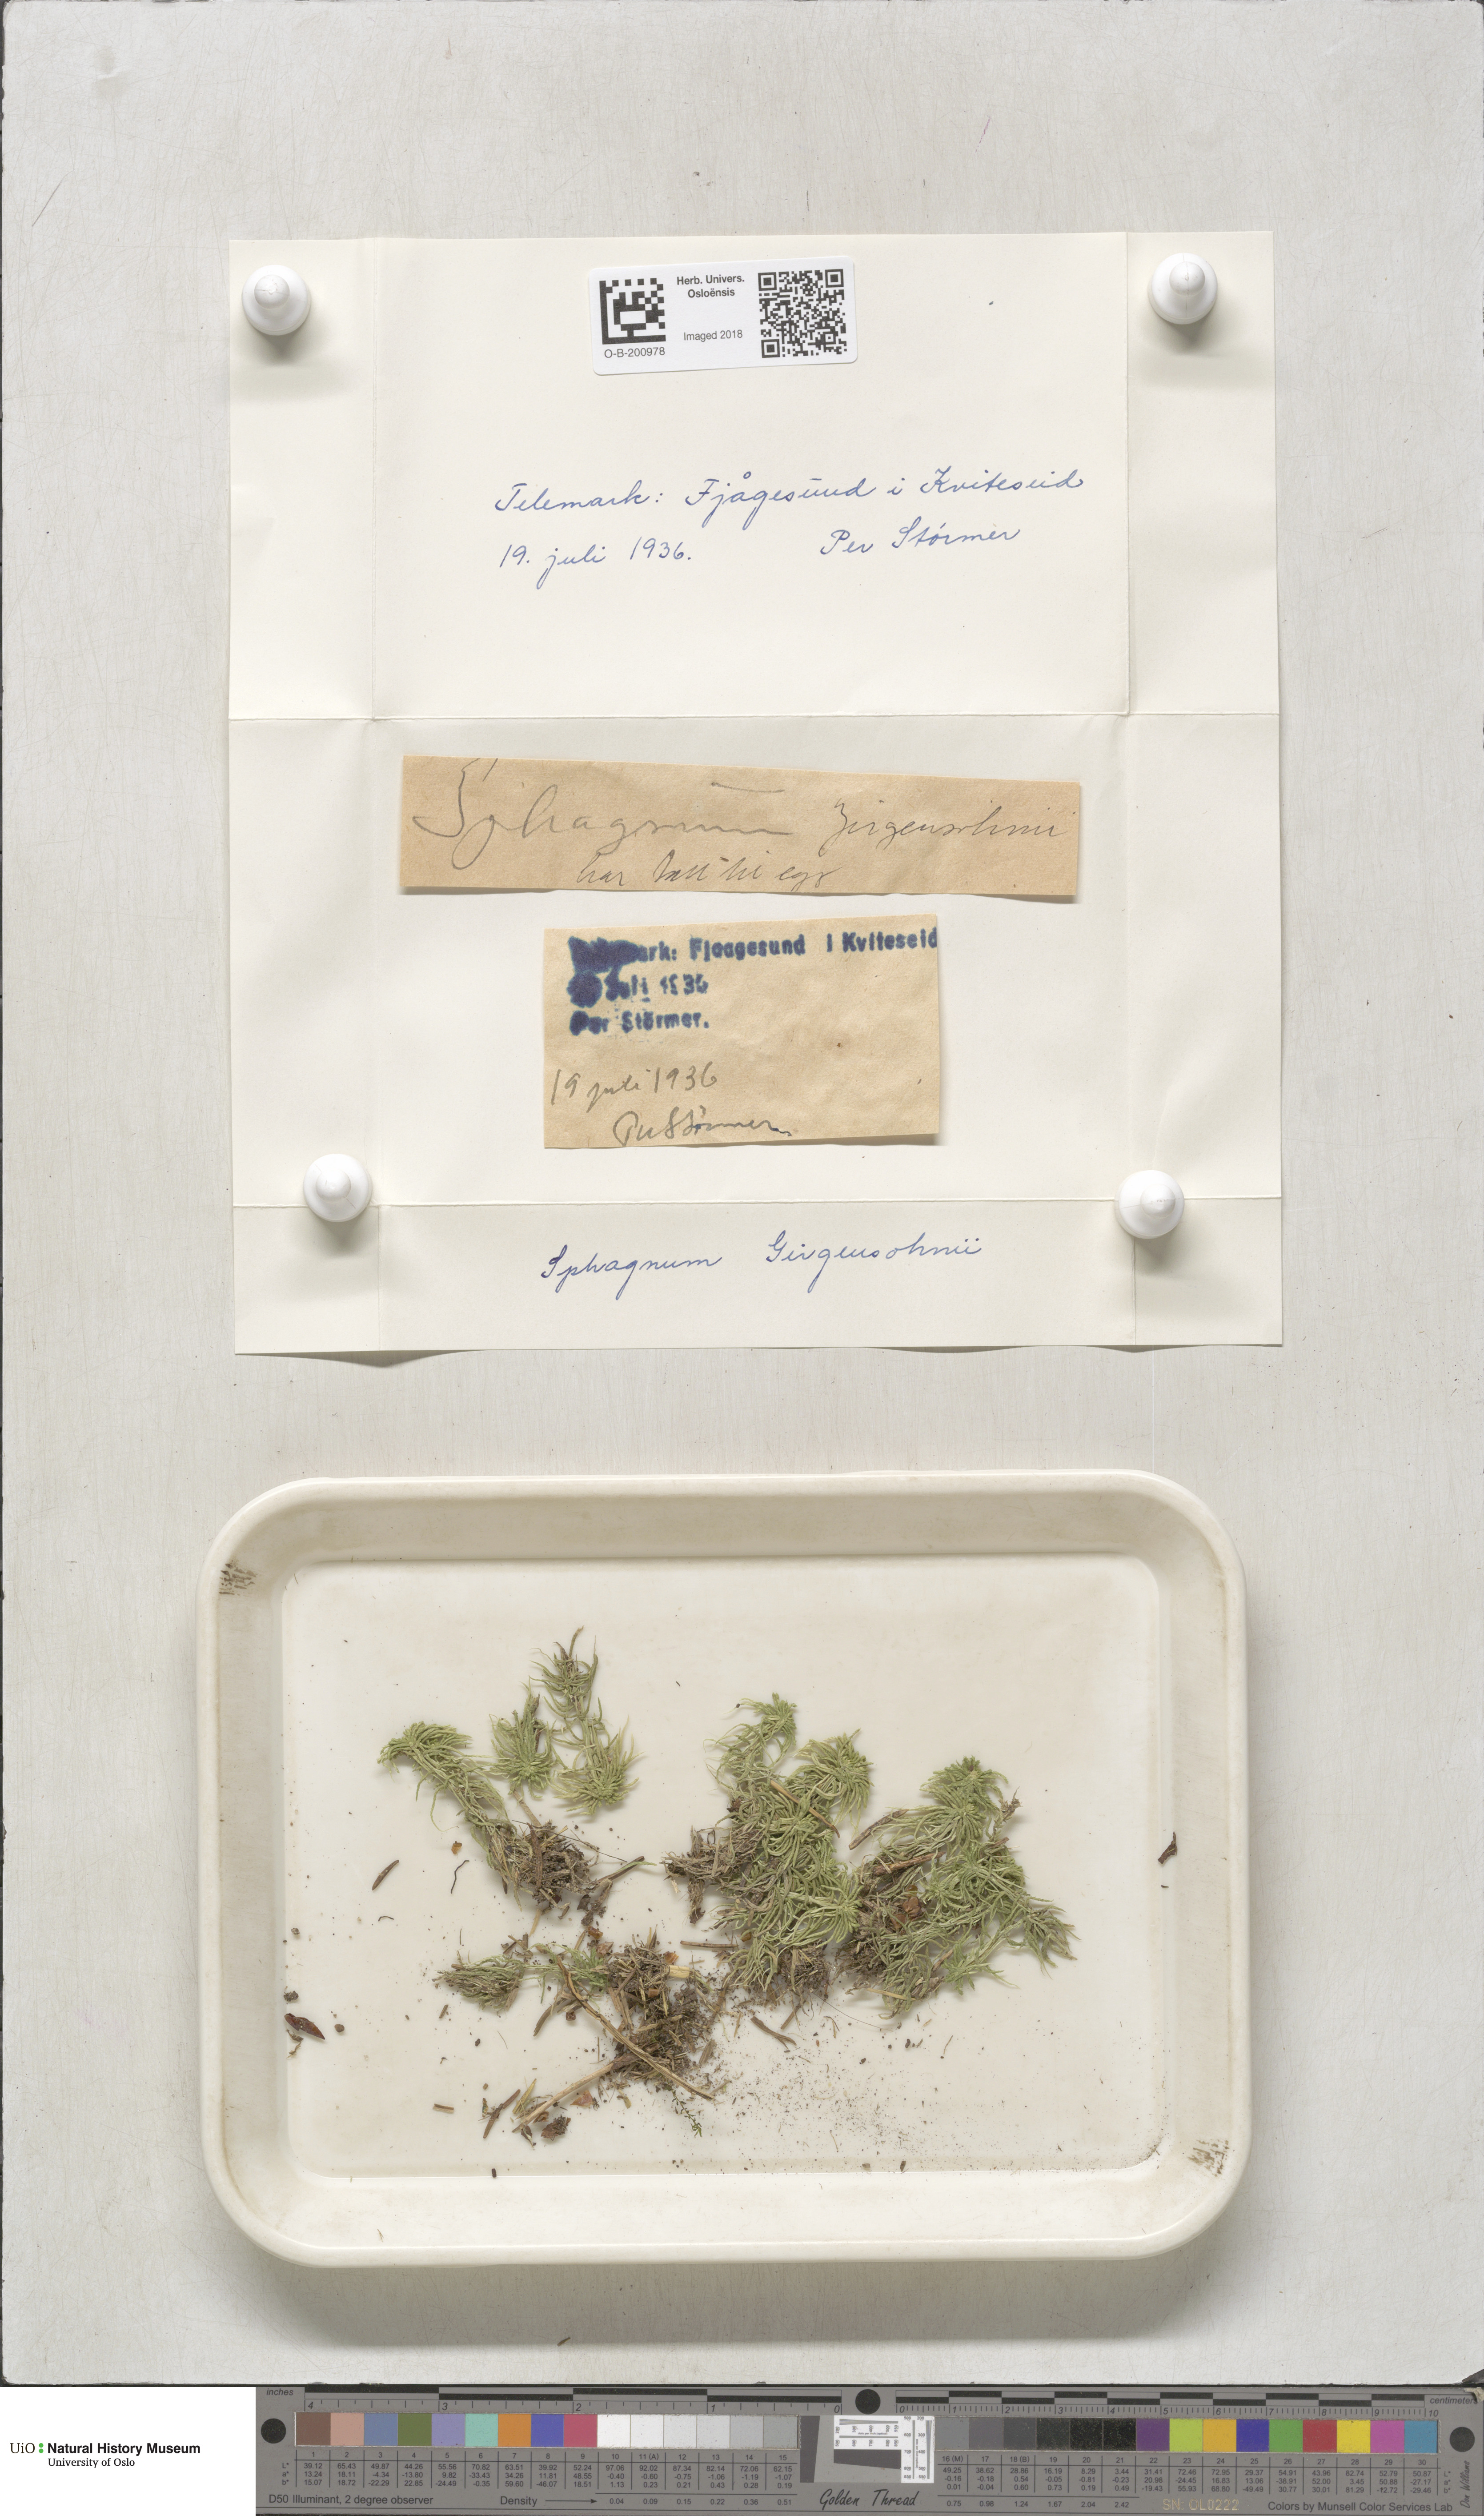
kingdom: Plantae
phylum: Bryophyta
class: Sphagnopsida
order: Sphagnales
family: Sphagnaceae
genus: Sphagnum
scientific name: Sphagnum girgensohnii
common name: Girgensohn's peat moss
